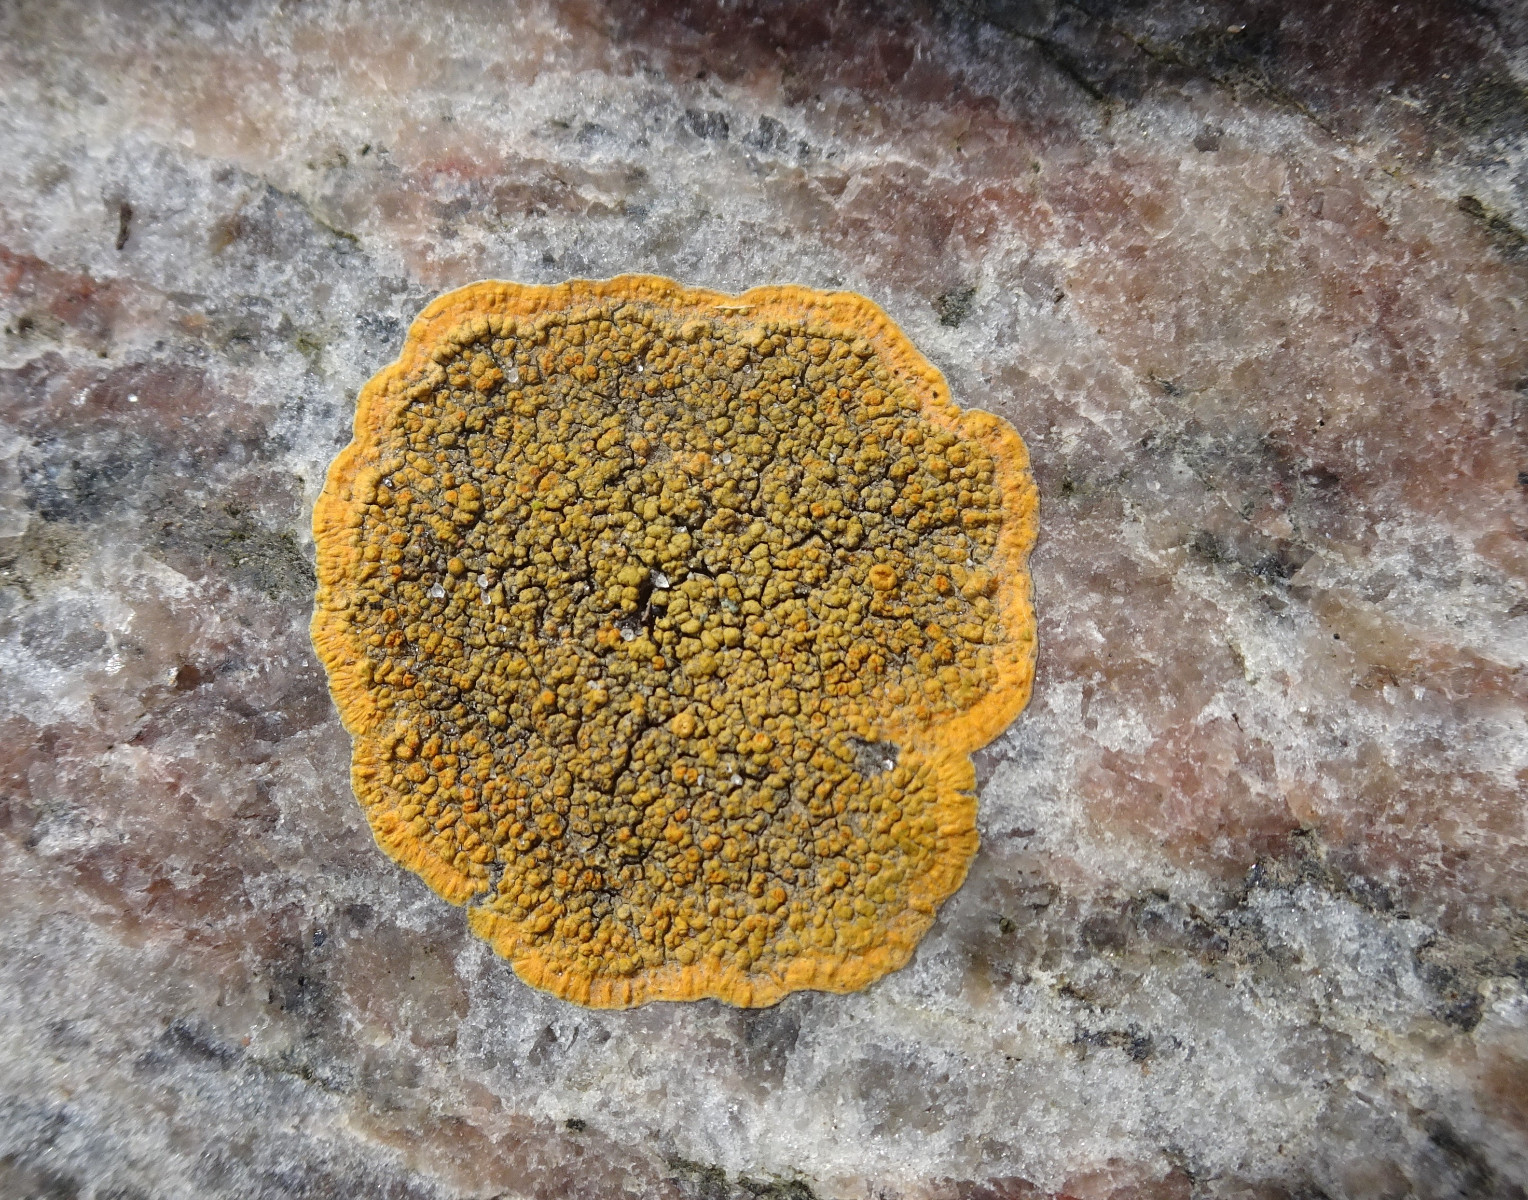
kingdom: Fungi
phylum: Ascomycota
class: Lecanoromycetes
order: Teloschistales
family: Teloschistaceae
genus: Flavoplaca
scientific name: Flavoplaca marina
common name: strand-orangelav
